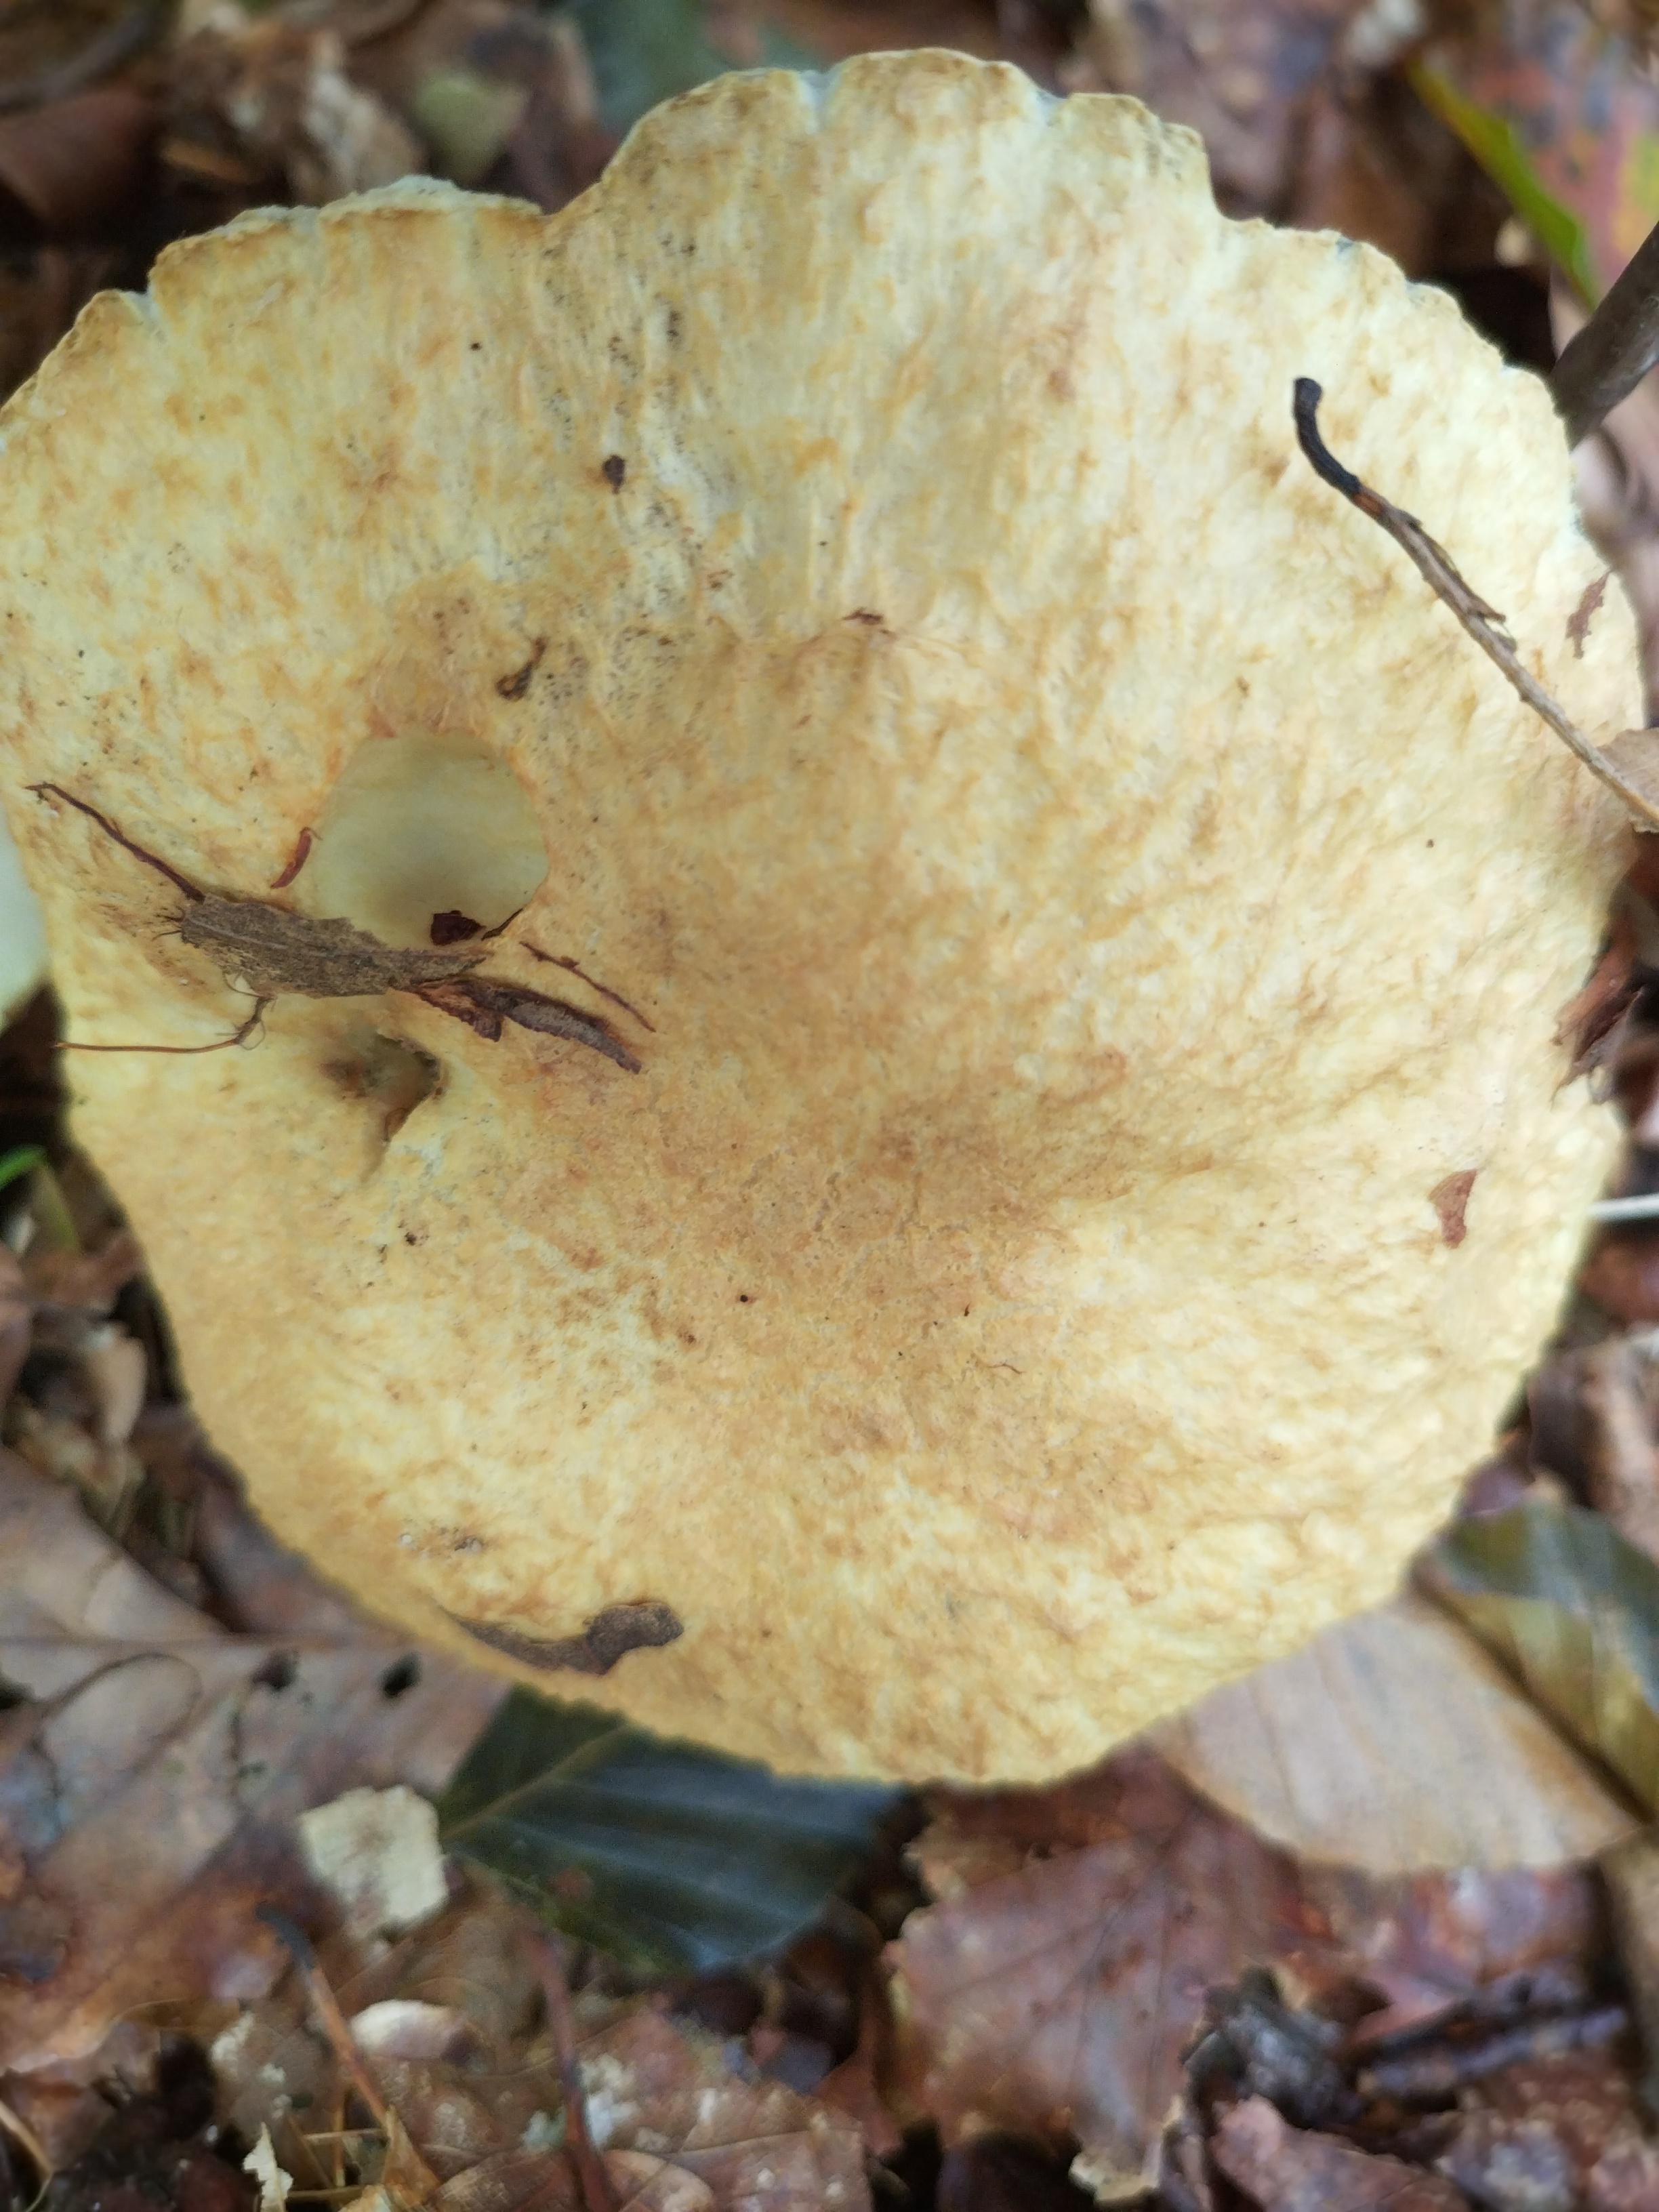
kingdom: Fungi
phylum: Basidiomycota
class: Agaricomycetes
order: Boletales
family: Gyroporaceae
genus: Gyroporus
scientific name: Gyroporus cyanescens
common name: blånende kammerrørhat
